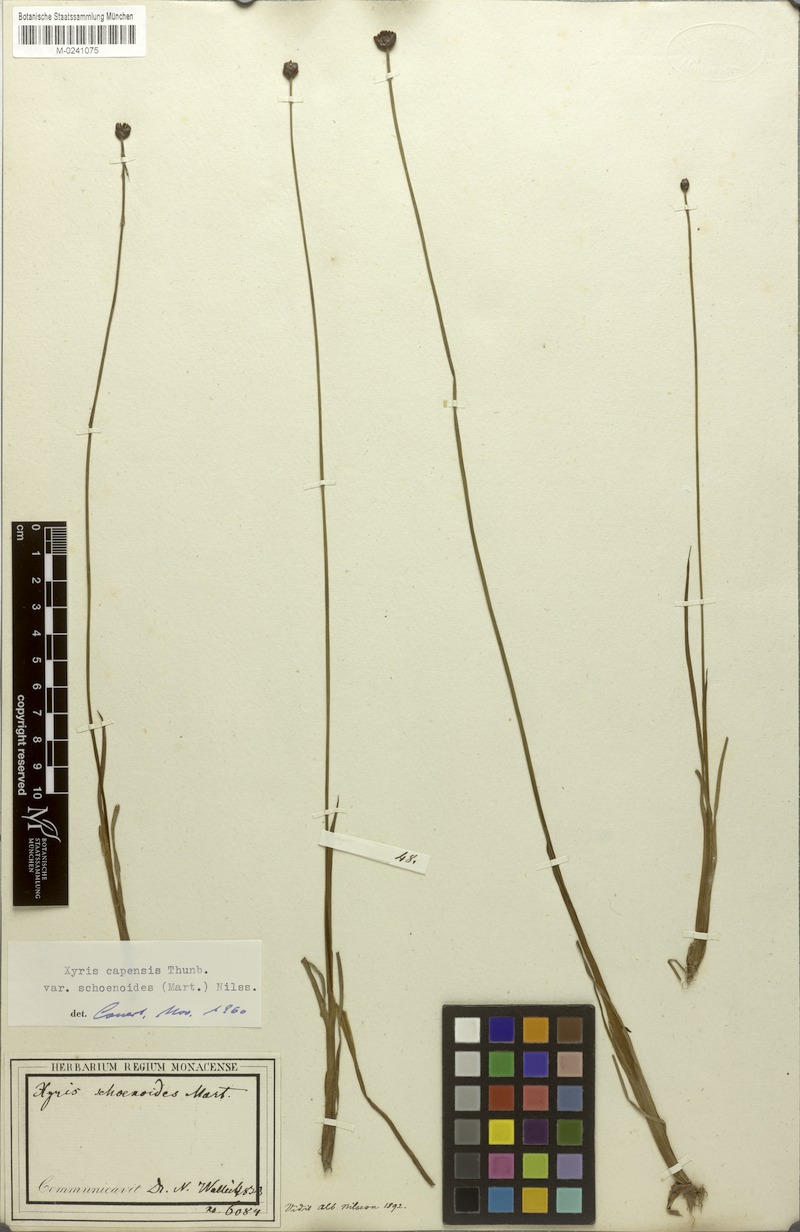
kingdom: Plantae
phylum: Tracheophyta
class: Liliopsida
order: Poales
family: Xyridaceae
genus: Xyris
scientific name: Xyris capensis
